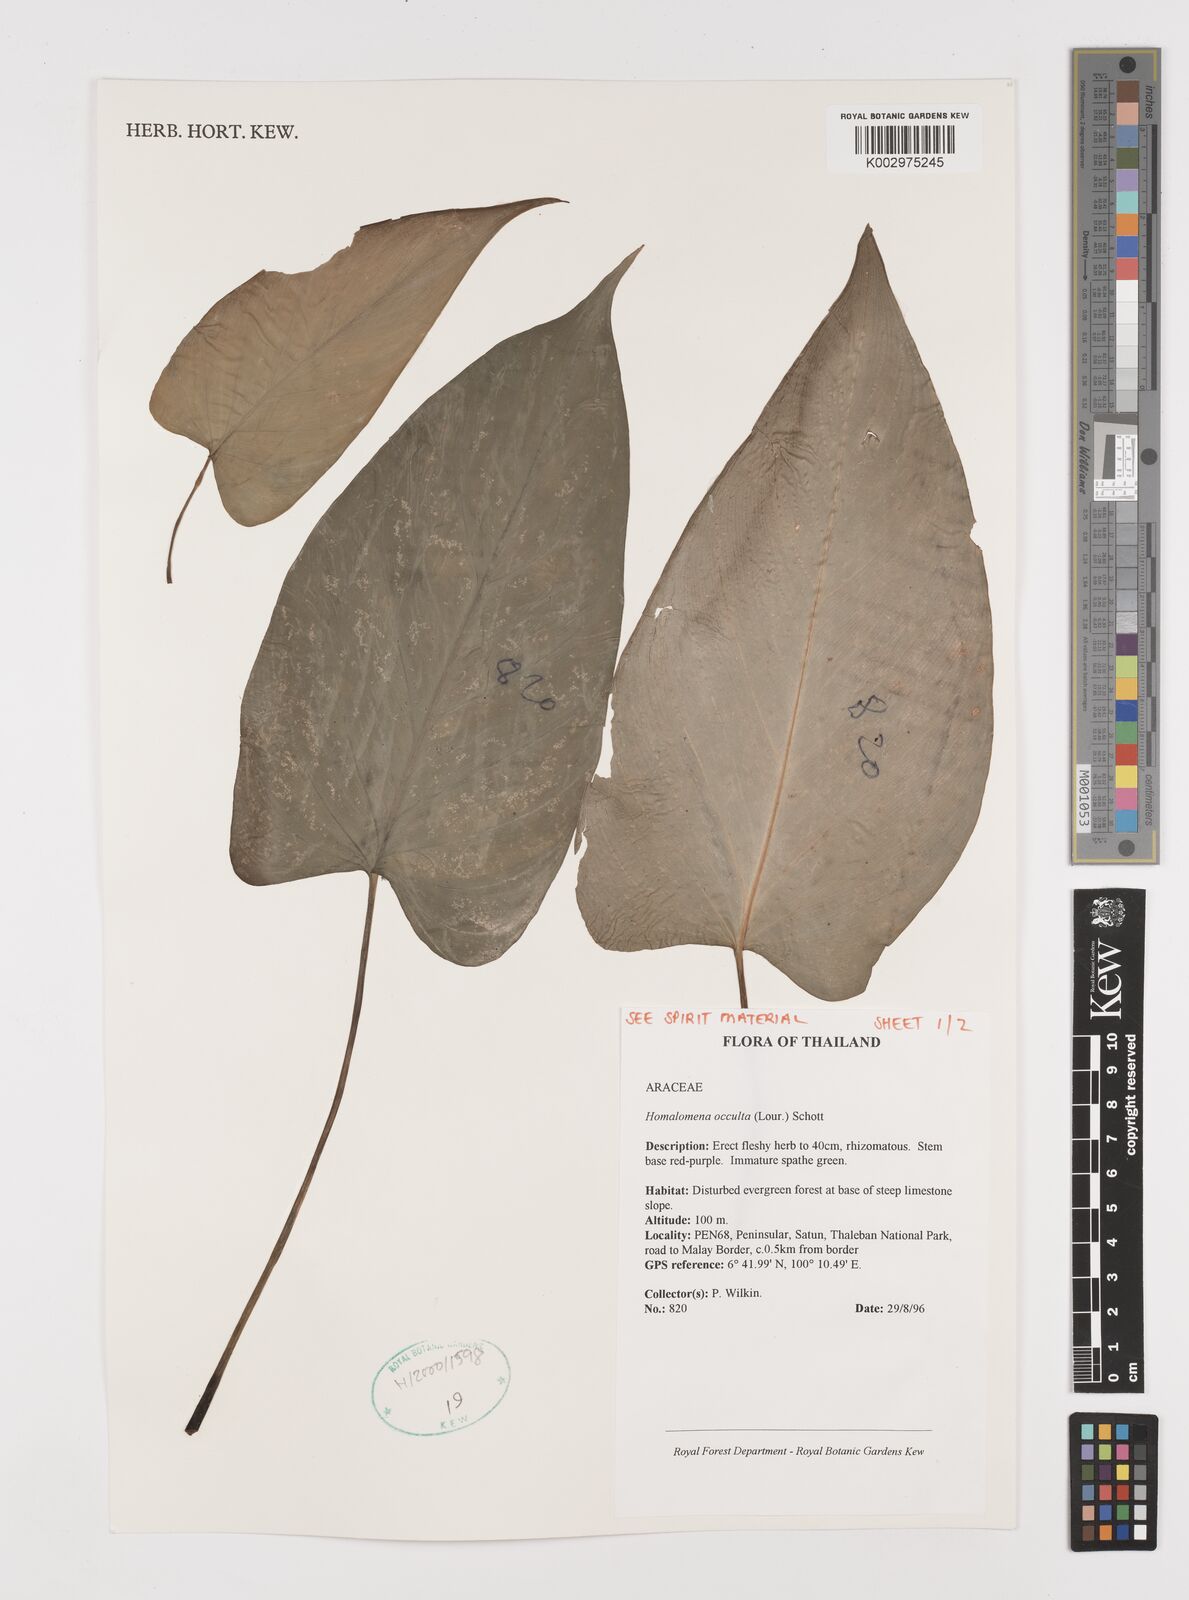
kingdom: Plantae
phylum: Tracheophyta
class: Liliopsida
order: Alismatales
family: Araceae
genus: Homalomena
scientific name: Homalomena occulta
